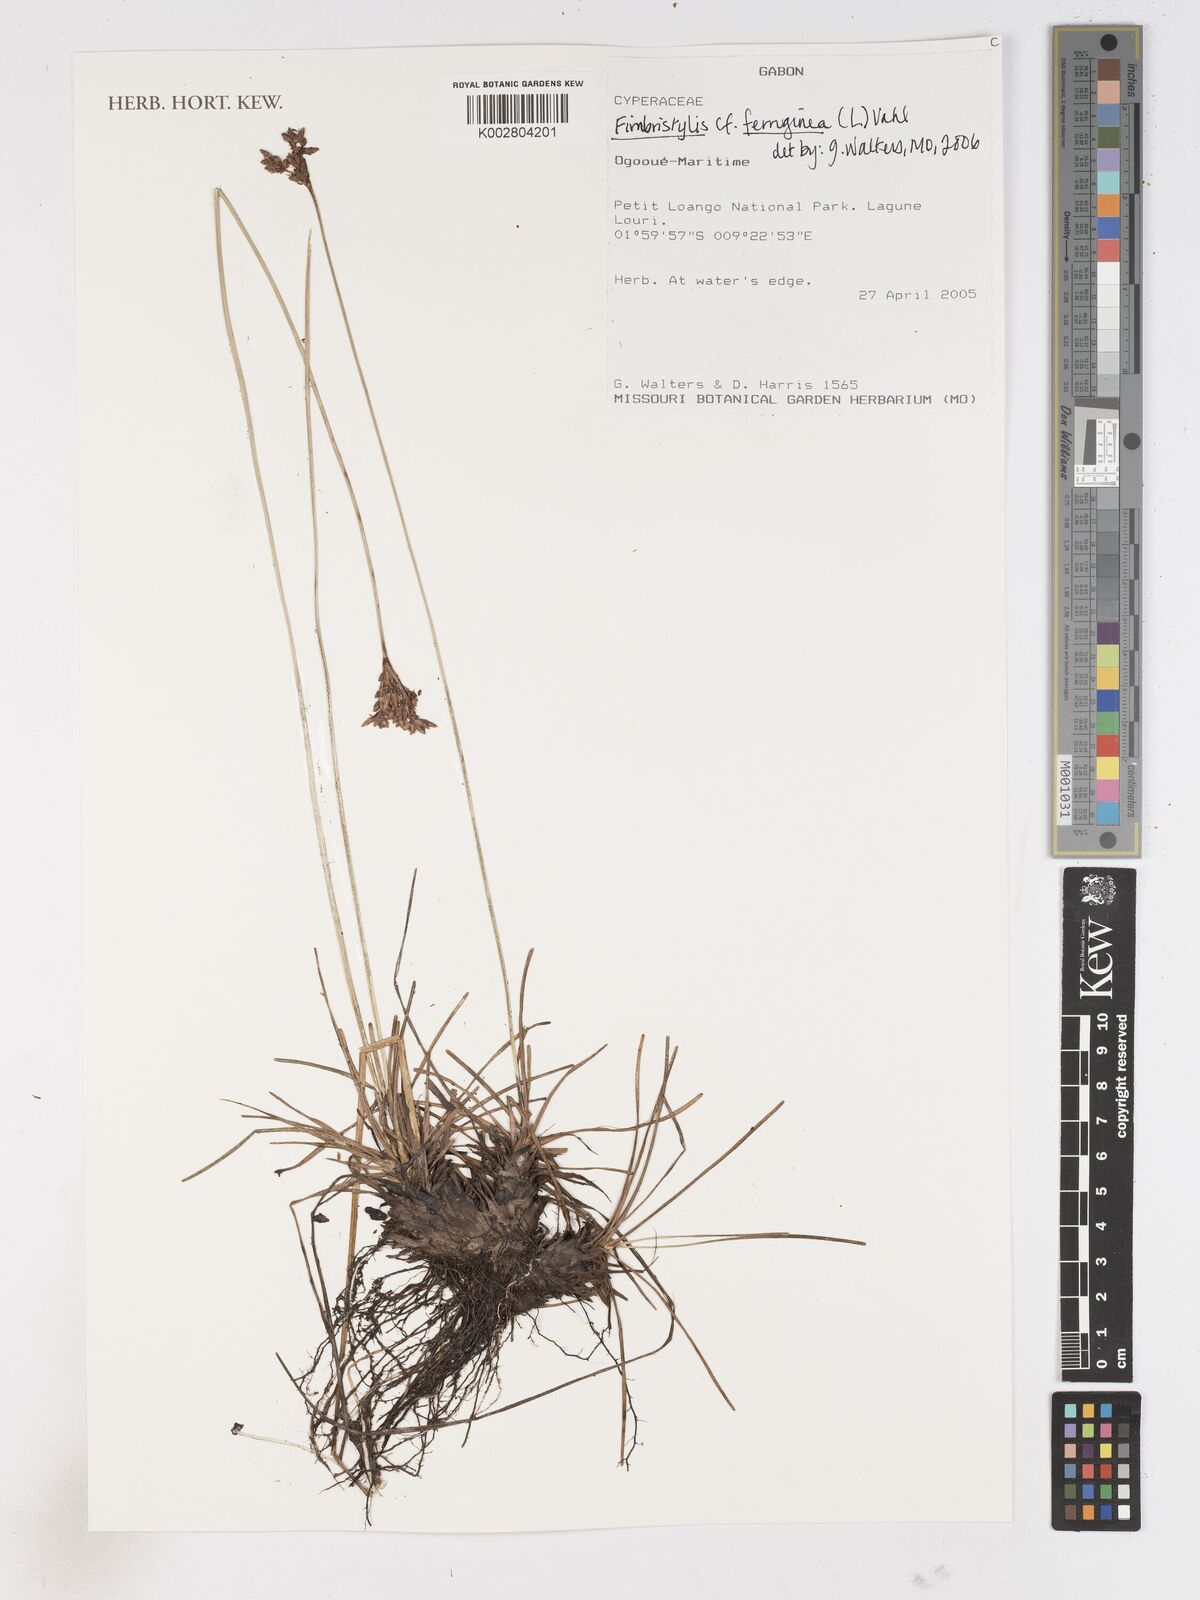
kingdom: Plantae
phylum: Tracheophyta
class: Liliopsida
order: Poales
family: Cyperaceae
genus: Fimbristylis
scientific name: Fimbristylis ferruginea
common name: West indian fimbry
